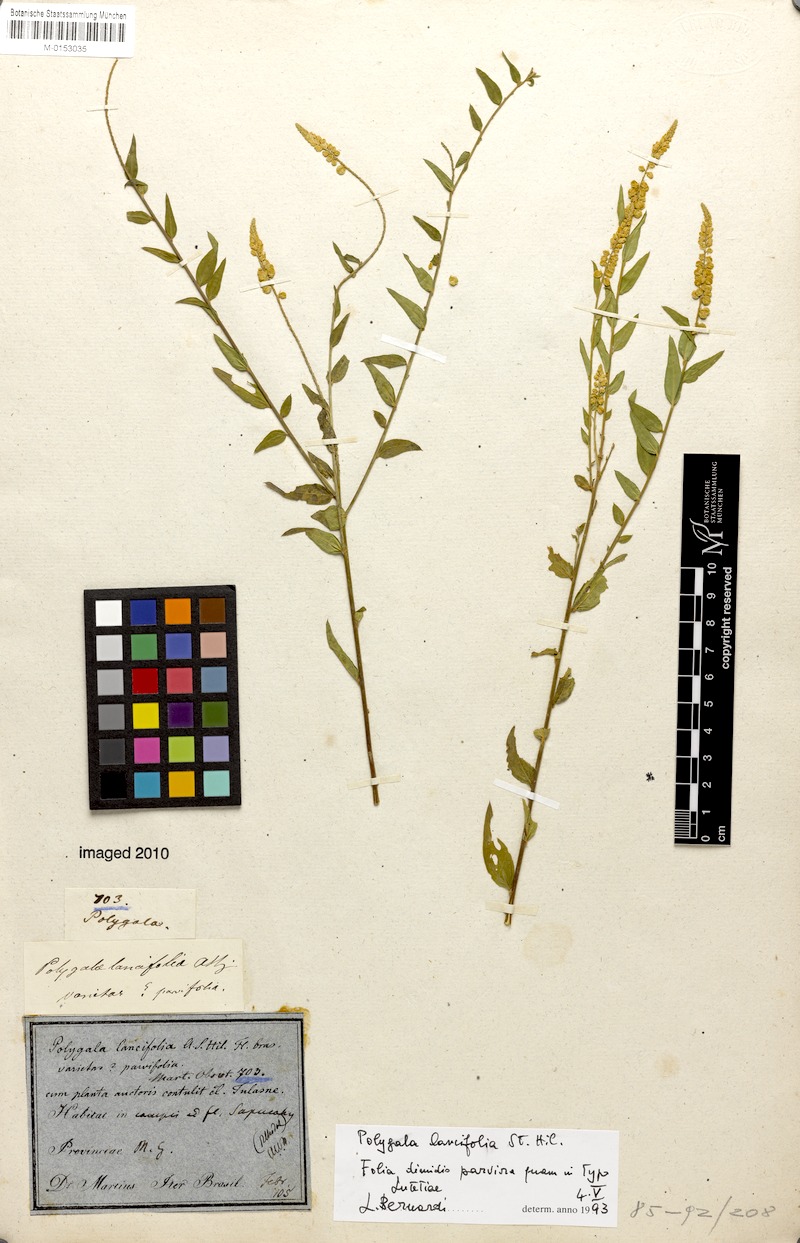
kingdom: Plantae
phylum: Tracheophyta
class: Magnoliopsida
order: Fabales
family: Polygalaceae
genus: Polygala
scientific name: Polygala lancifolia
